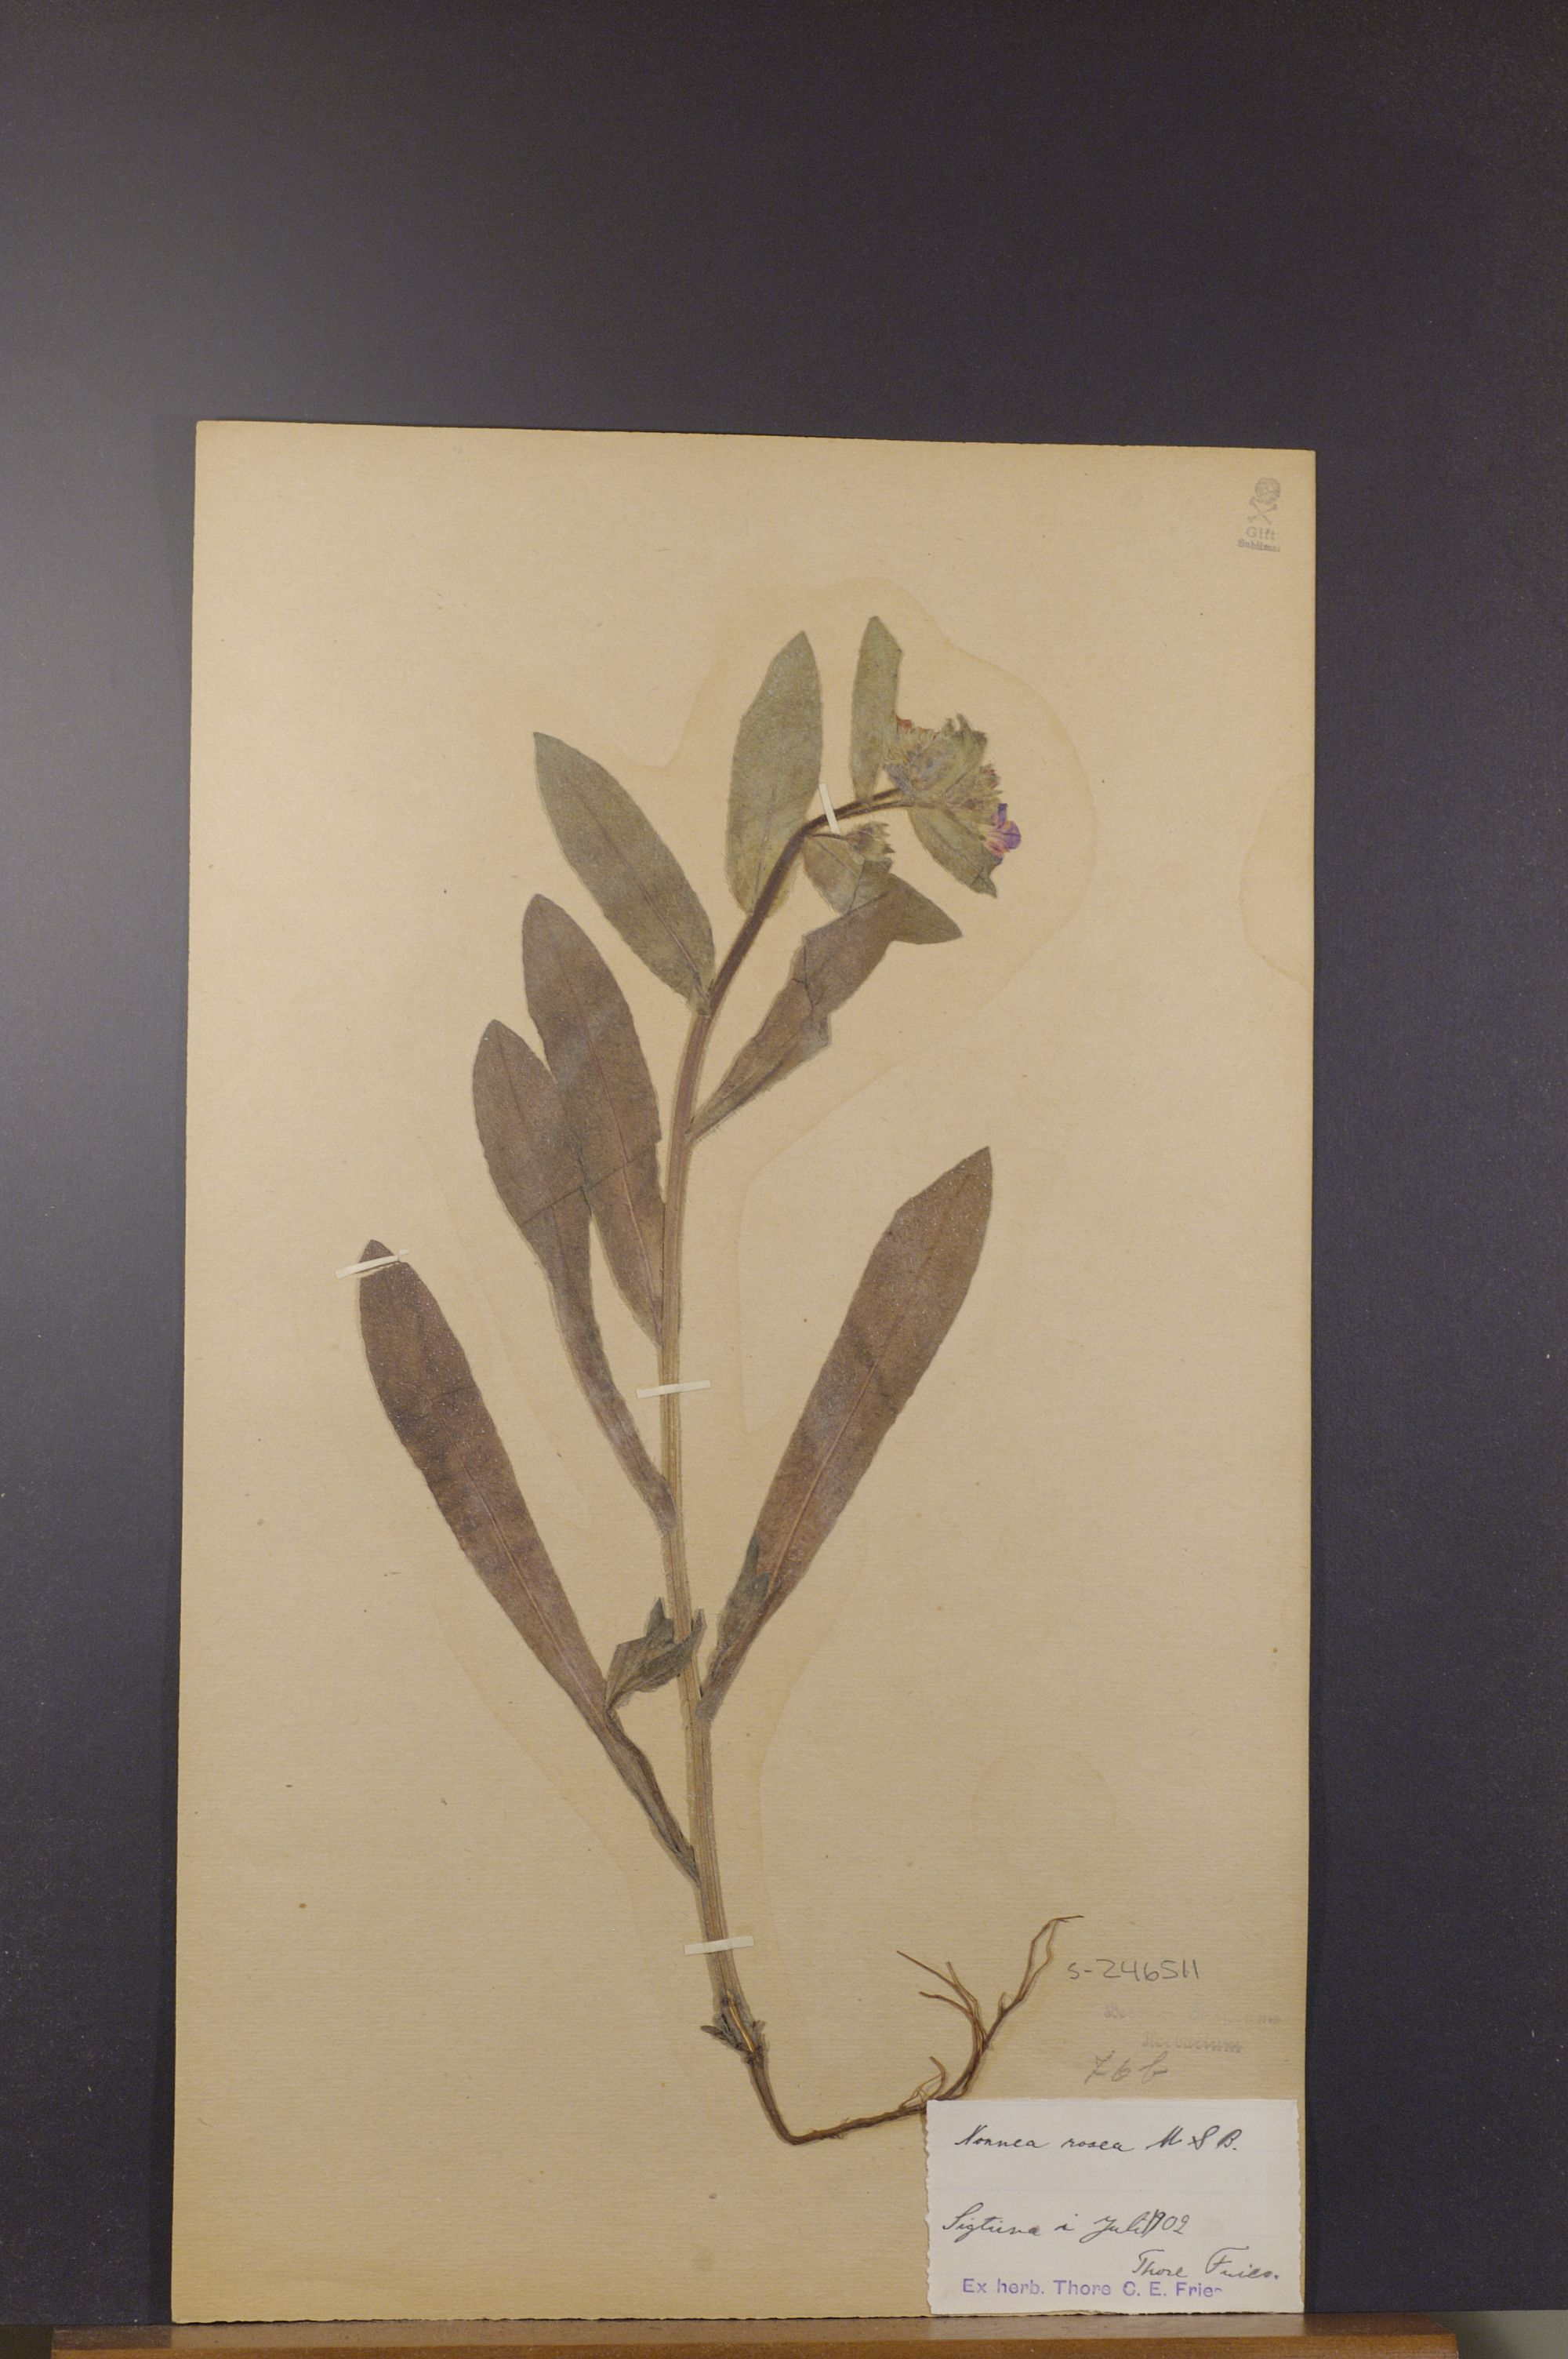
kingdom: Plantae
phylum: Tracheophyta
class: Magnoliopsida
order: Boraginales
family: Boraginaceae
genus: Nonea
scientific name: Nonea versicolor
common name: Varied monkswort
